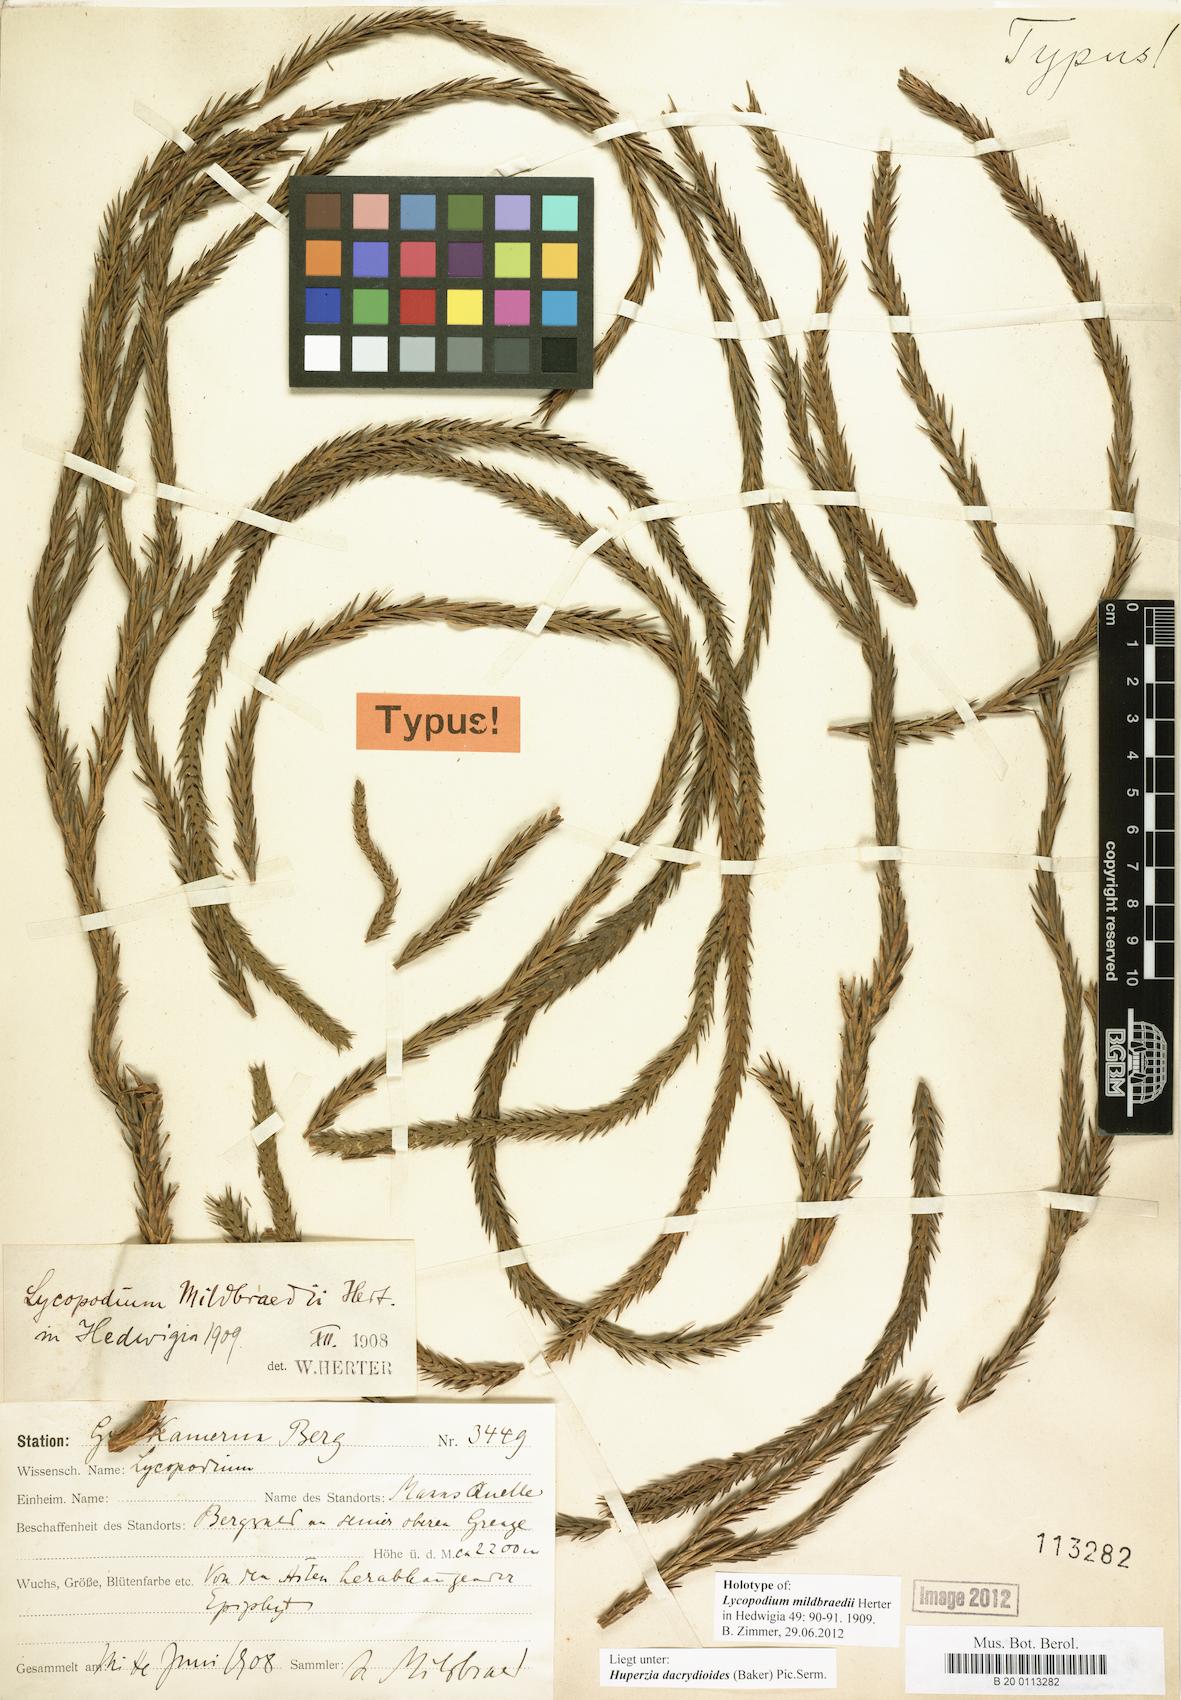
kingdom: Plantae
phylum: Tracheophyta
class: Lycopodiopsida
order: Lycopodiales
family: Lycopodiaceae
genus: Phlegmariurus
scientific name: Phlegmariurus mildbraedii
